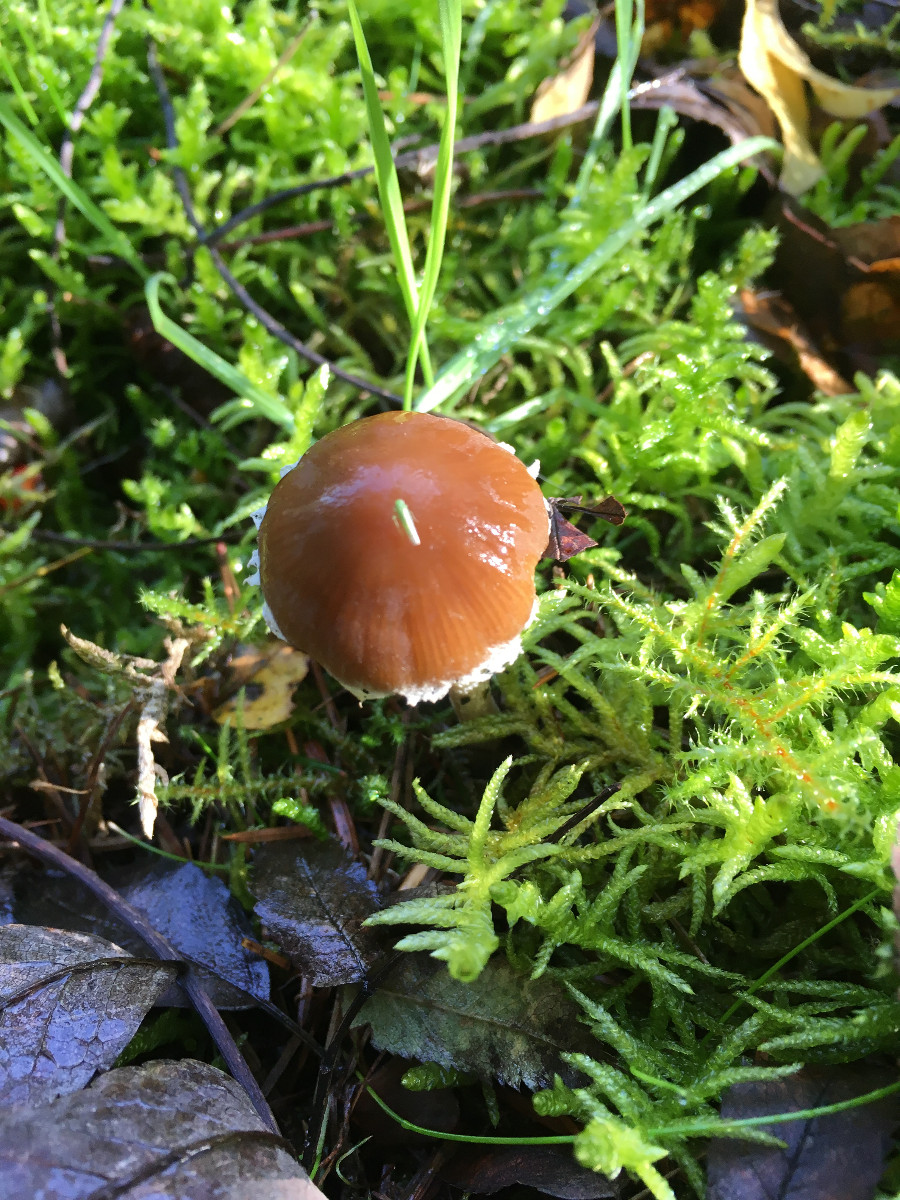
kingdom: Fungi
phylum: Basidiomycota
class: Agaricomycetes
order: Agaricales
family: Psathyrellaceae
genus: Psathyrella
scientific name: Psathyrella
